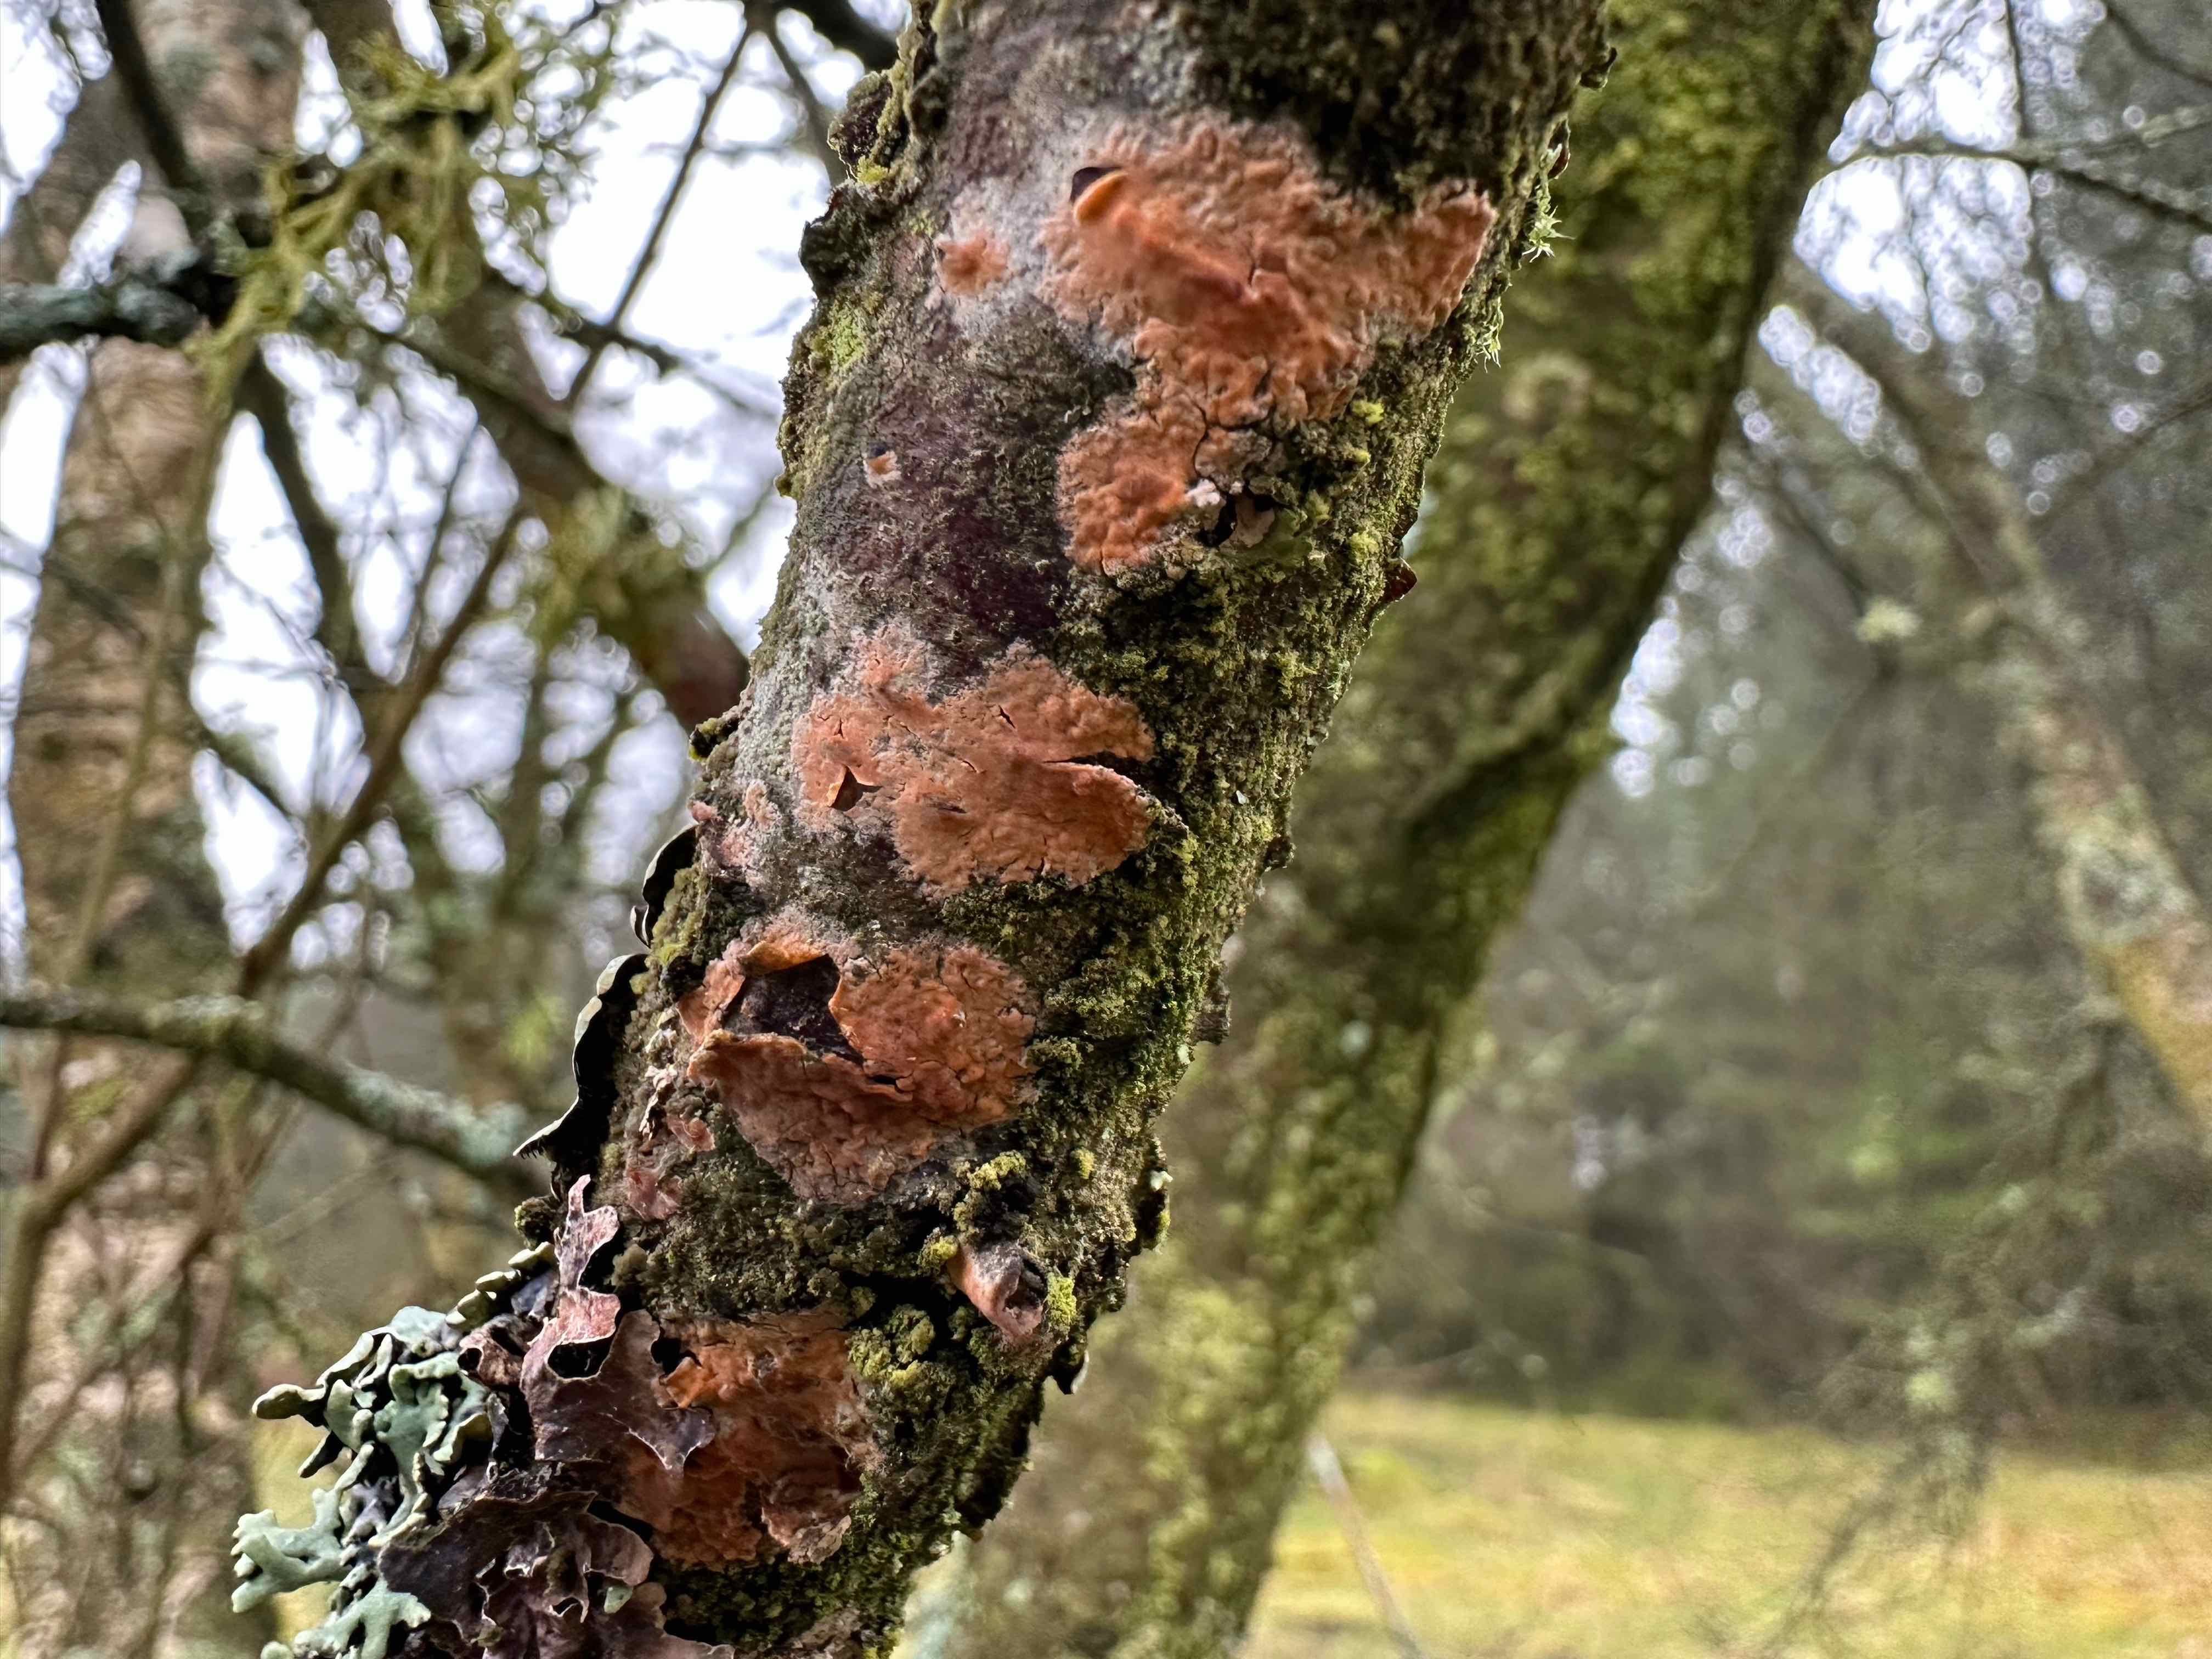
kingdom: Fungi
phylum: Basidiomycota
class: Agaricomycetes
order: Russulales
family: Peniophoraceae
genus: Peniophora
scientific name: Peniophora incarnata
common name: laksefarvet voksskind
